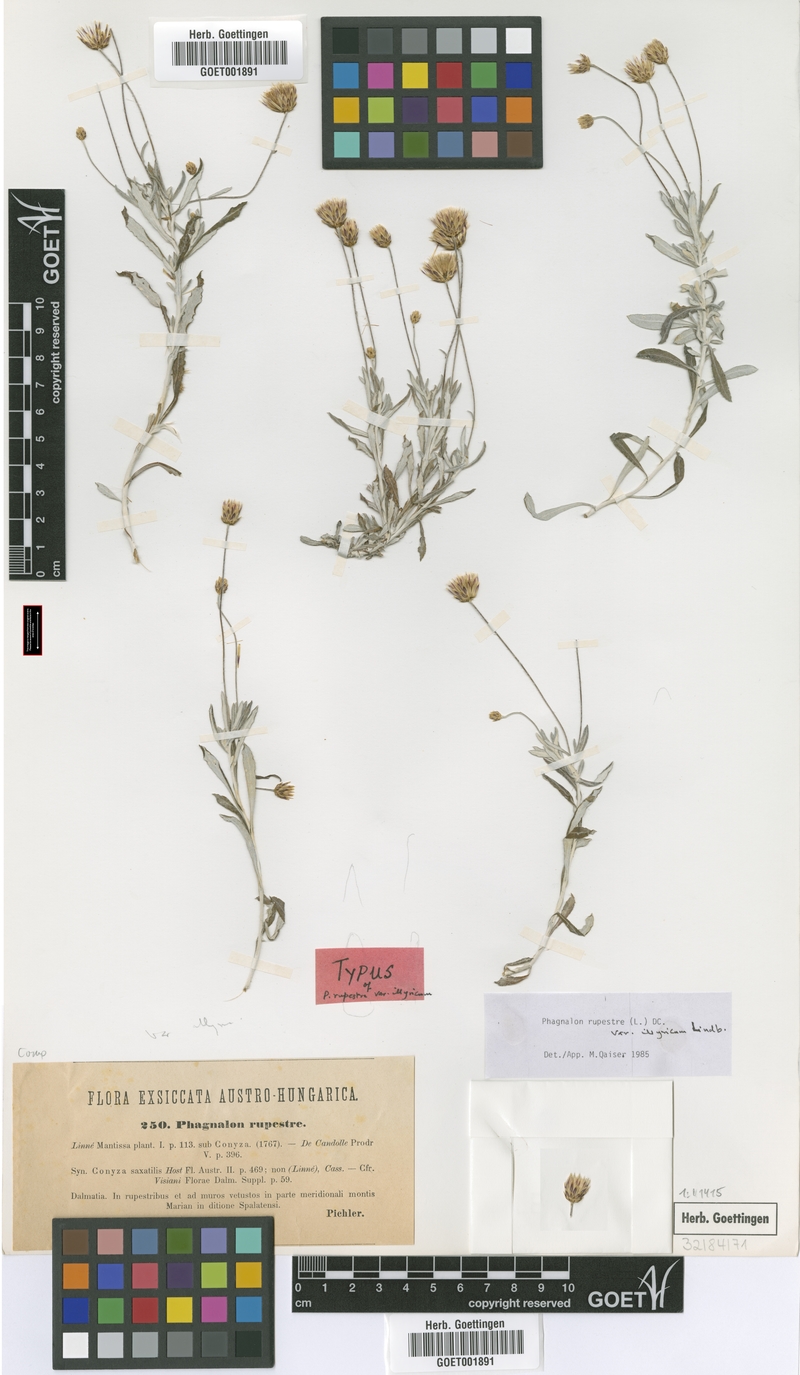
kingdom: Plantae
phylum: Tracheophyta
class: Magnoliopsida
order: Asterales
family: Asteraceae
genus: Phagnalon
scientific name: Phagnalon rupestre
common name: Rock phagnalon
